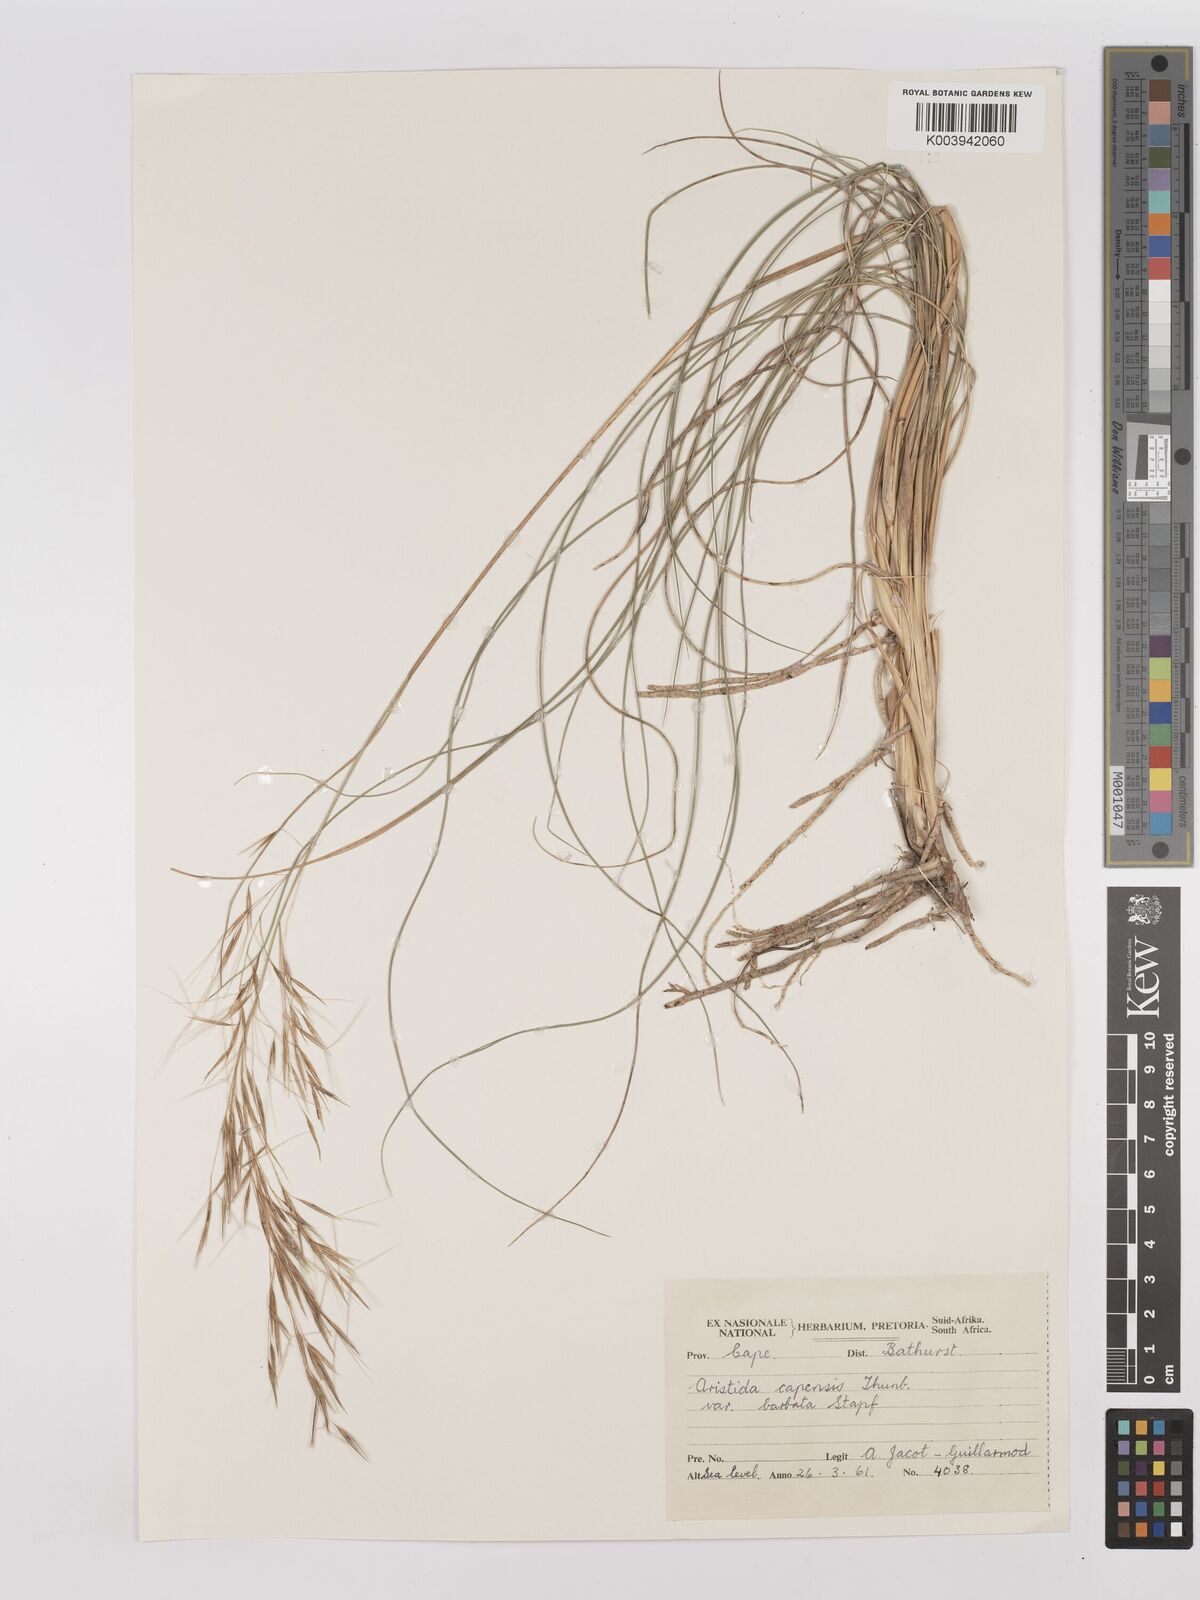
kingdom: Plantae
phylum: Tracheophyta
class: Liliopsida
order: Poales
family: Poaceae
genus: Stipagrostis
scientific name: Stipagrostis zeyheri
